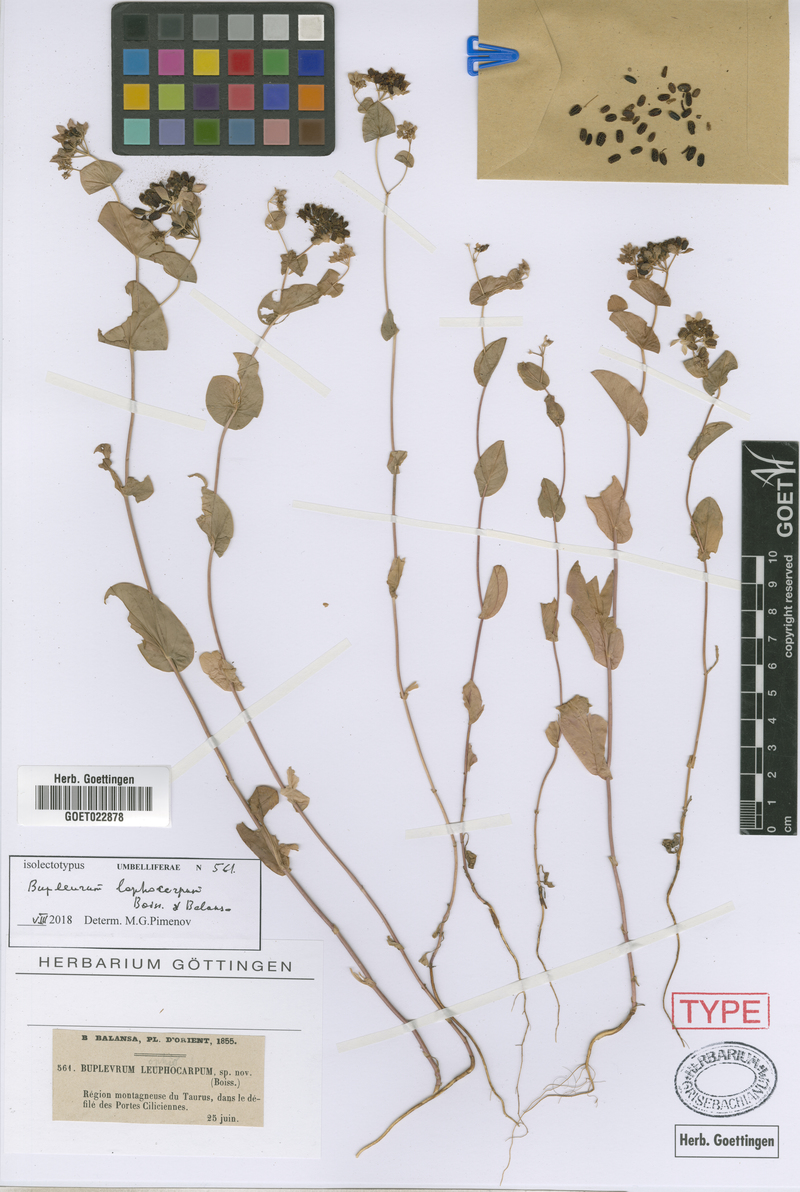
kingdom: Plantae
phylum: Tracheophyta
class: Magnoliopsida
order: Apiales
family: Apiaceae
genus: Bupleurum
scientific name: Bupleurum lophocarpum
